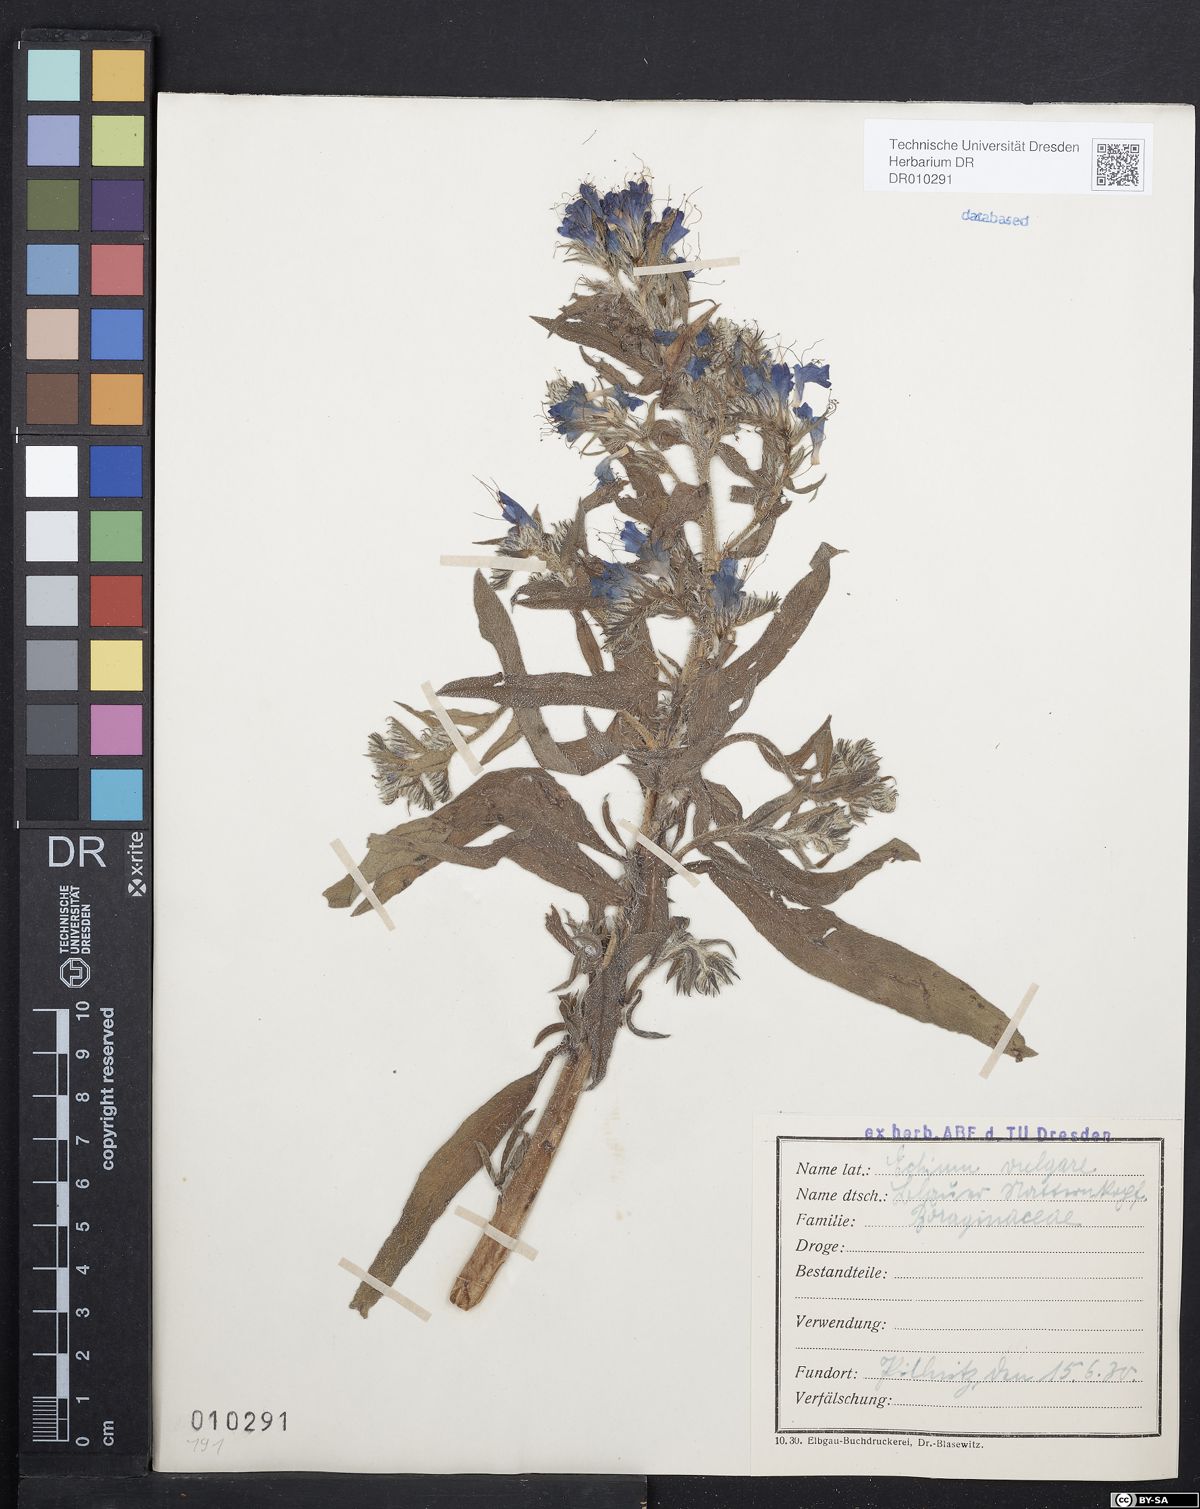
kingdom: Plantae
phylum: Tracheophyta
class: Magnoliopsida
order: Boraginales
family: Boraginaceae
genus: Echium
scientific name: Echium vulgare
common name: Common viper's bugloss
